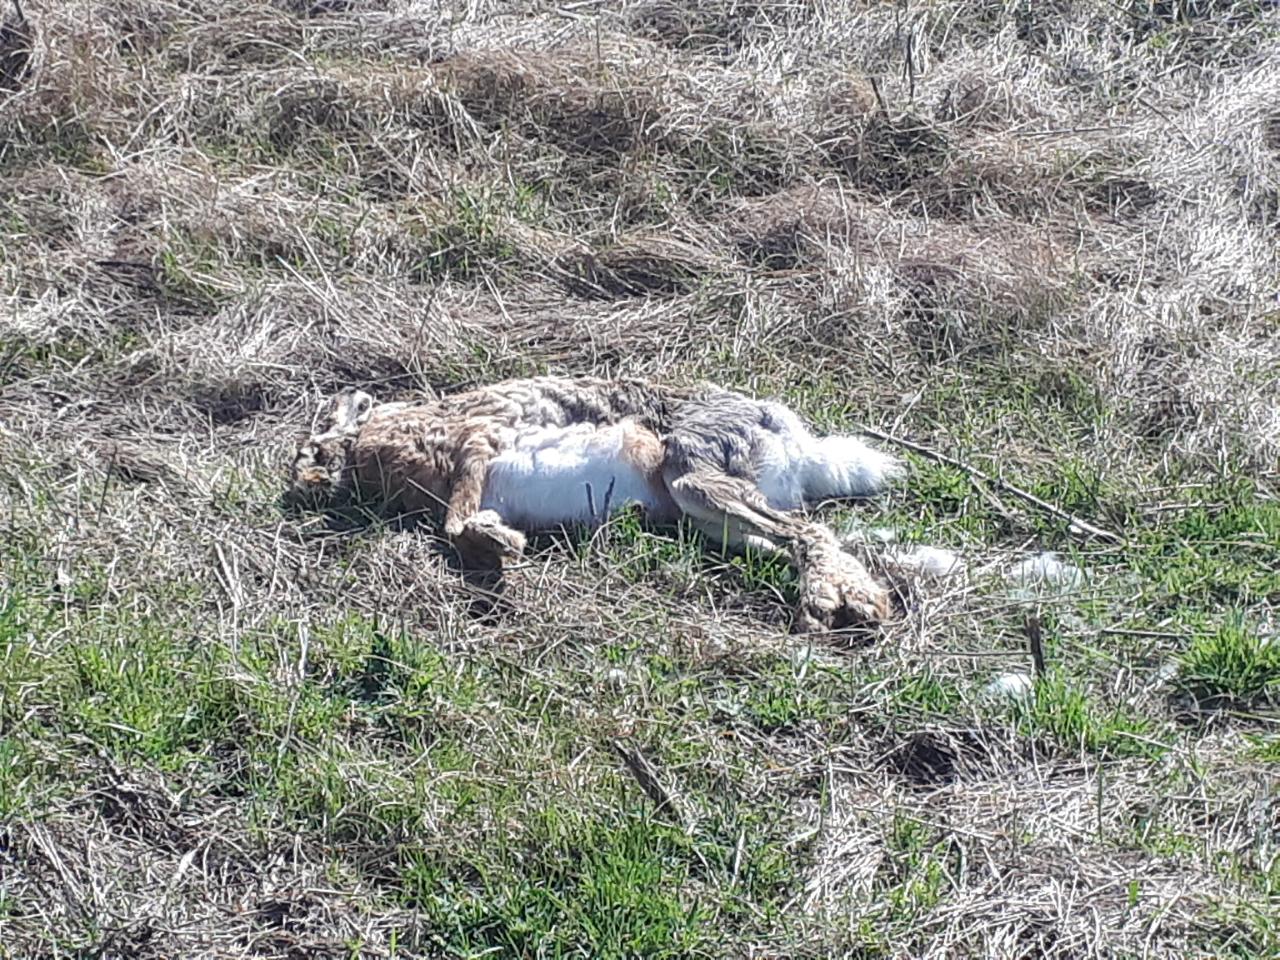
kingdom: Animalia
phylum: Chordata
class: Mammalia
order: Lagomorpha
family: Leporidae
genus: Lepus
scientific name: Lepus europaeus
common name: European hare
